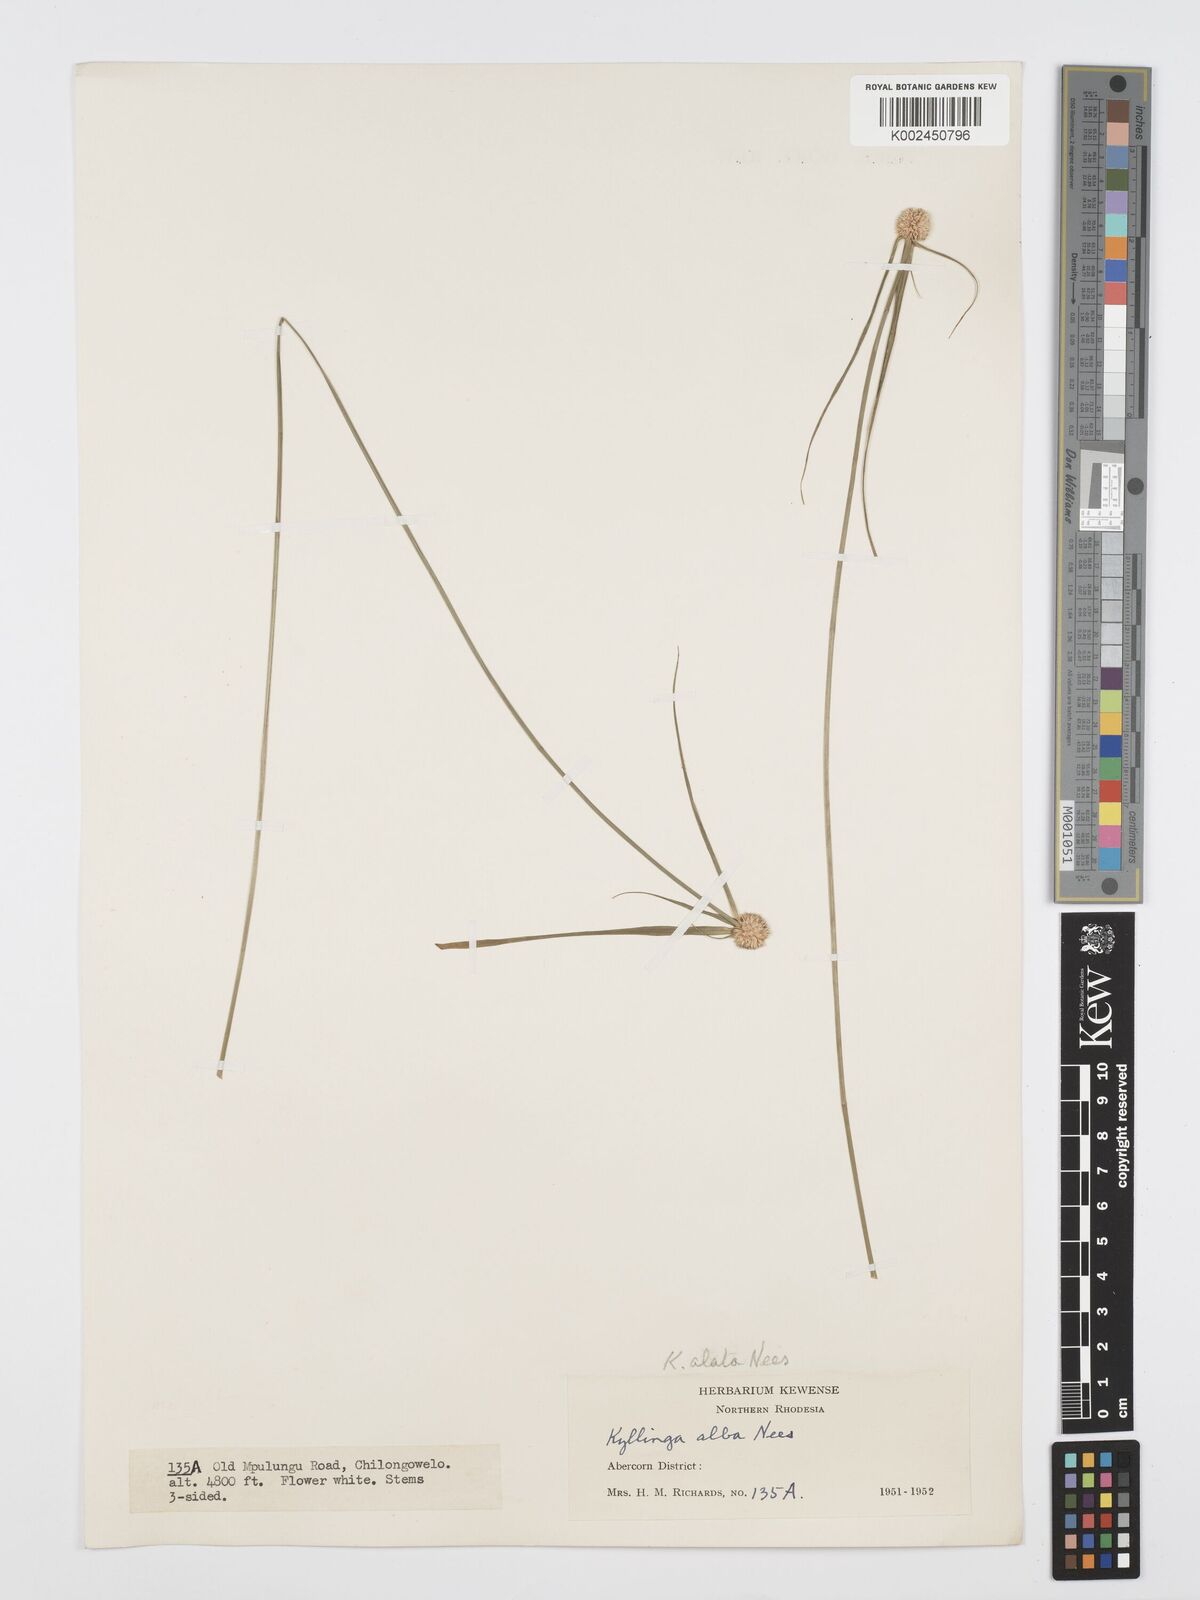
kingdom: Plantae
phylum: Tracheophyta
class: Liliopsida
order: Poales
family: Cyperaceae
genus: Cyperus
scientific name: Cyperus
